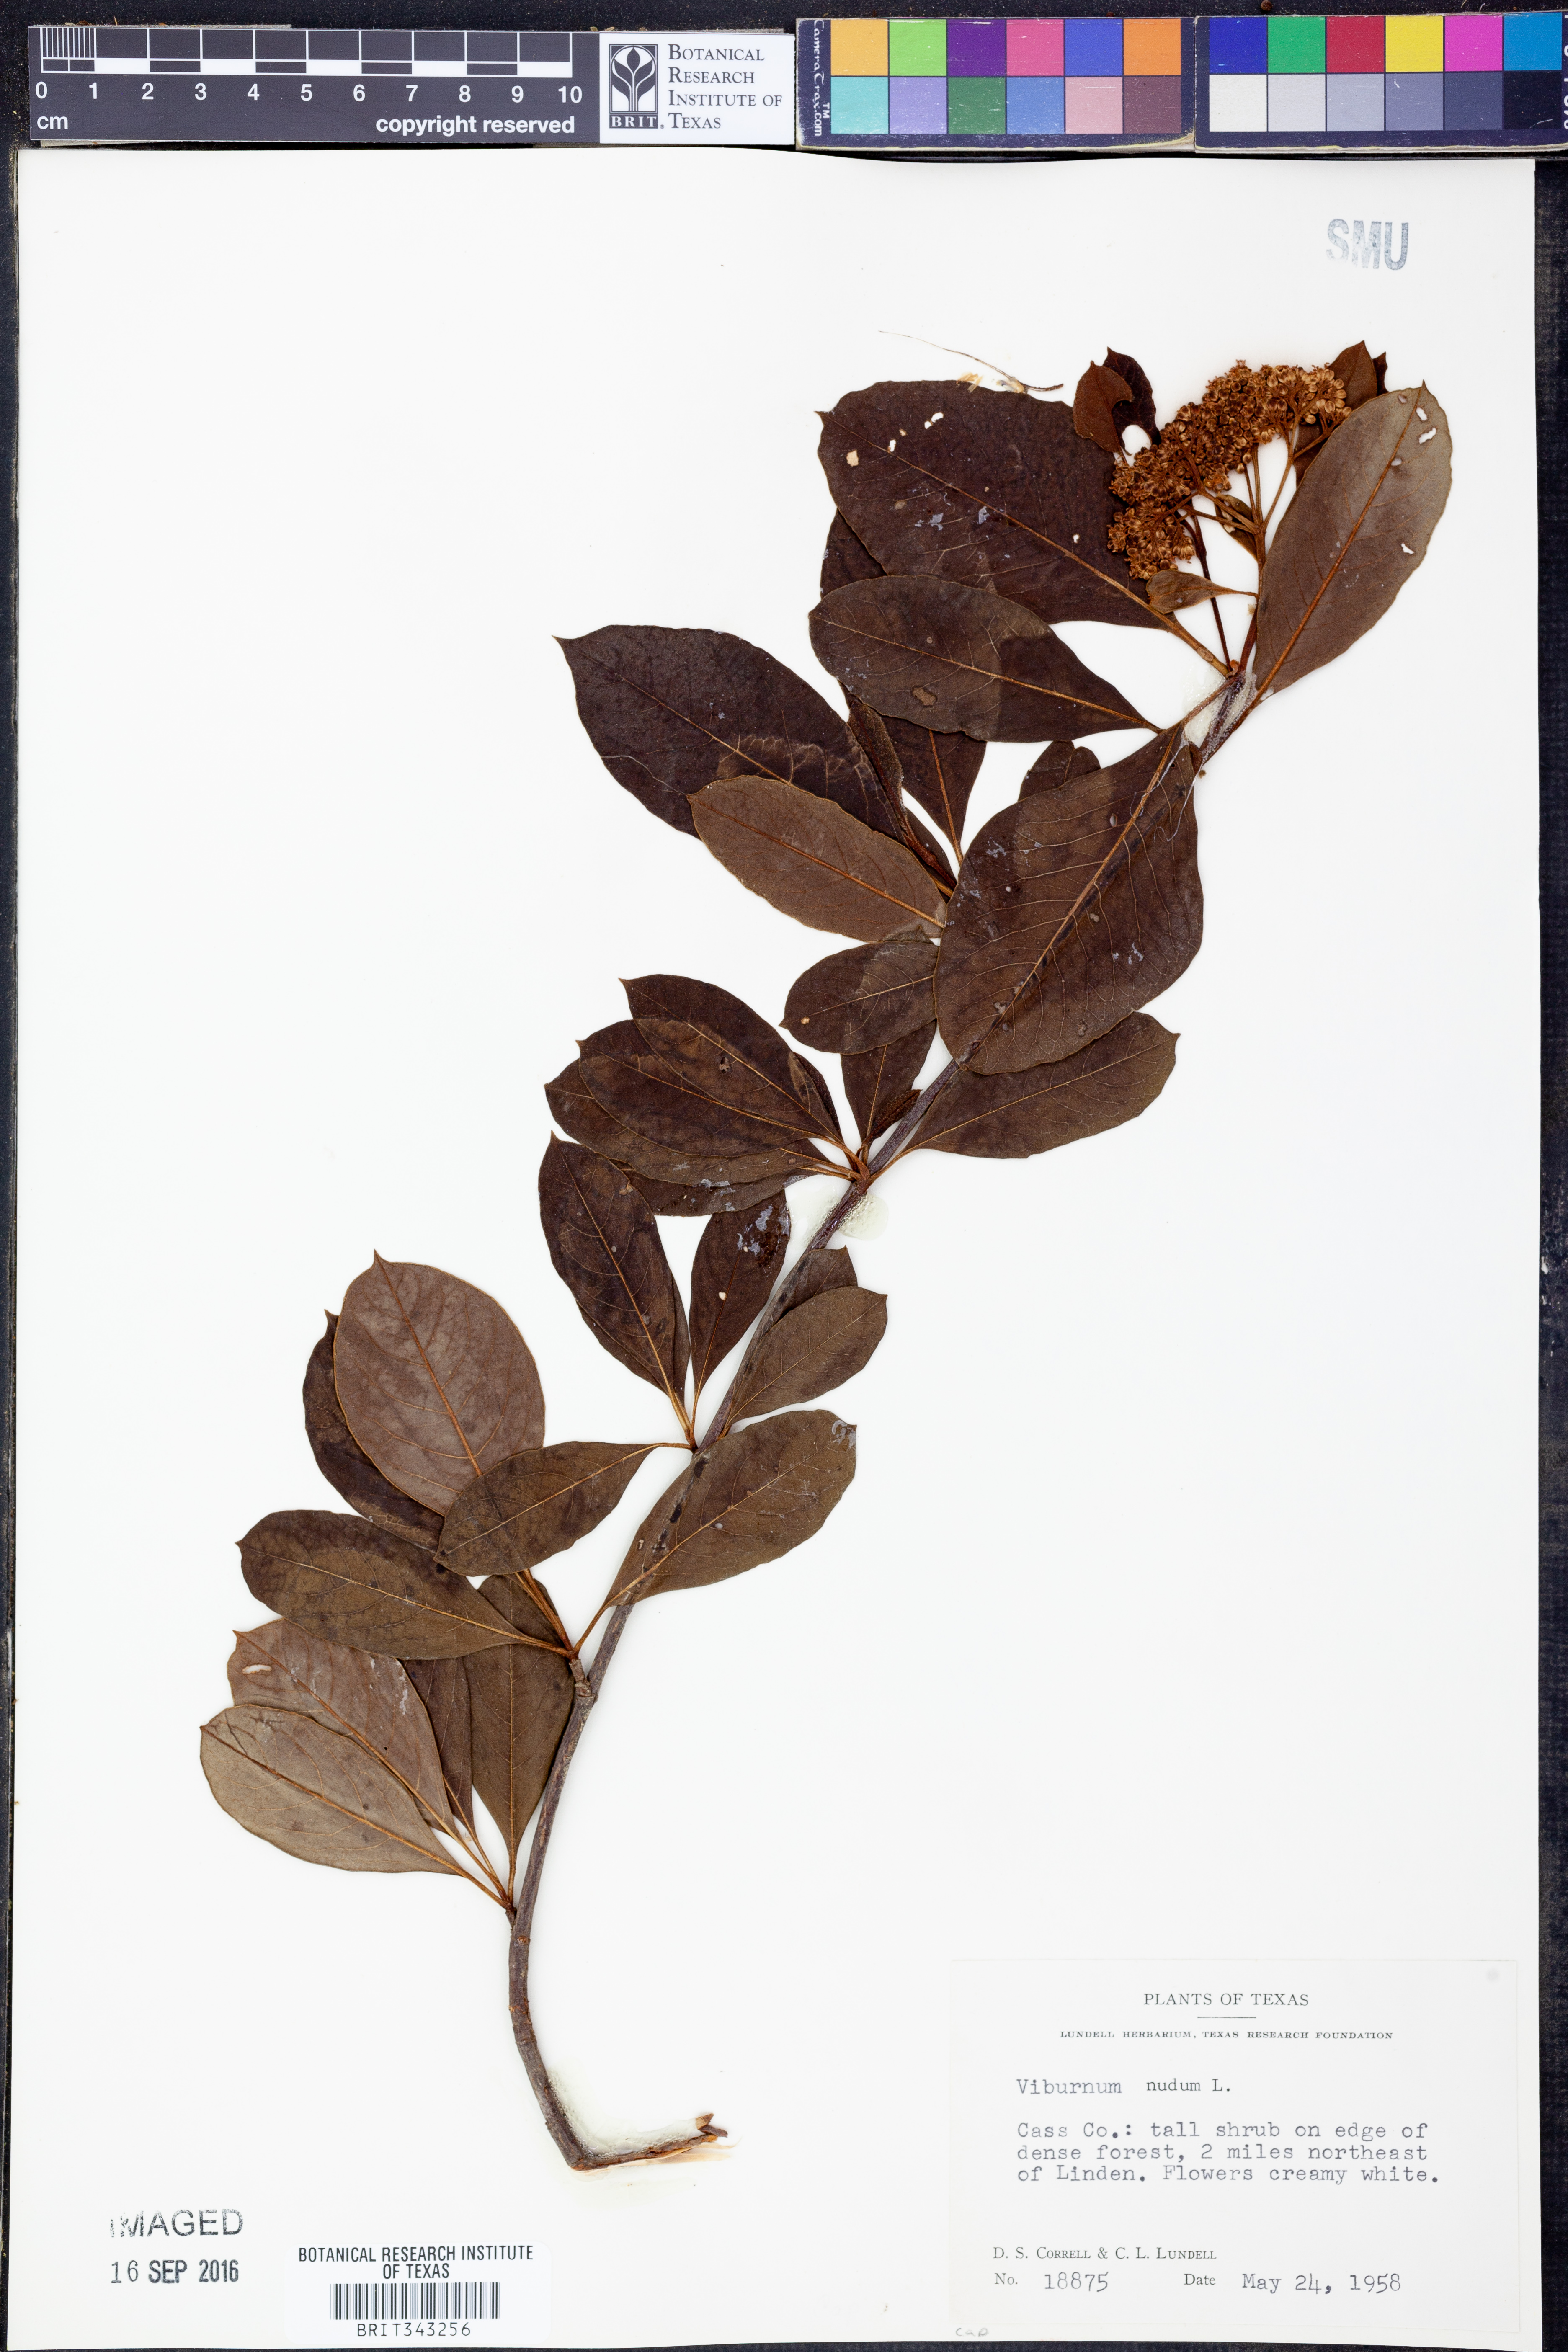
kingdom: Plantae
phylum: Tracheophyta
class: Magnoliopsida
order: Dipsacales
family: Viburnaceae
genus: Viburnum
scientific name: Viburnum nudum
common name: Possum haw
